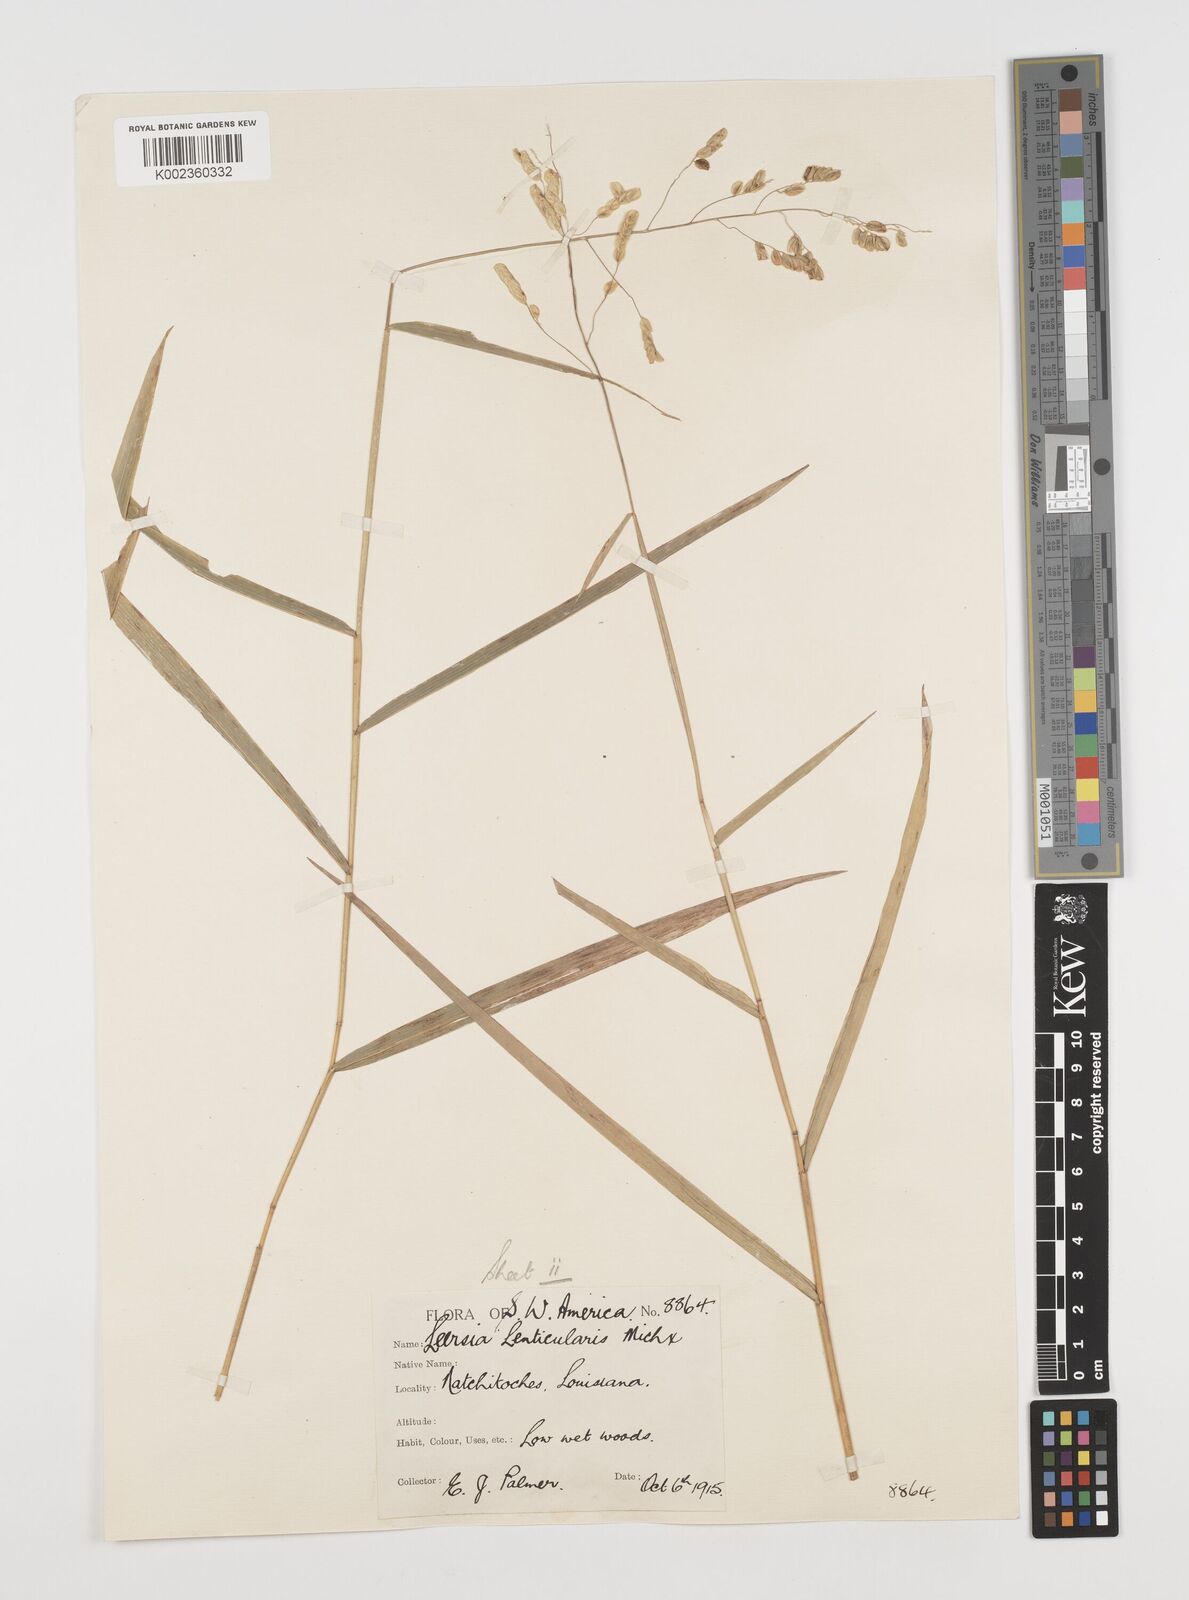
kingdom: Plantae
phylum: Tracheophyta
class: Liliopsida
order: Poales
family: Poaceae
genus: Leersia
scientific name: Leersia lenticularis
